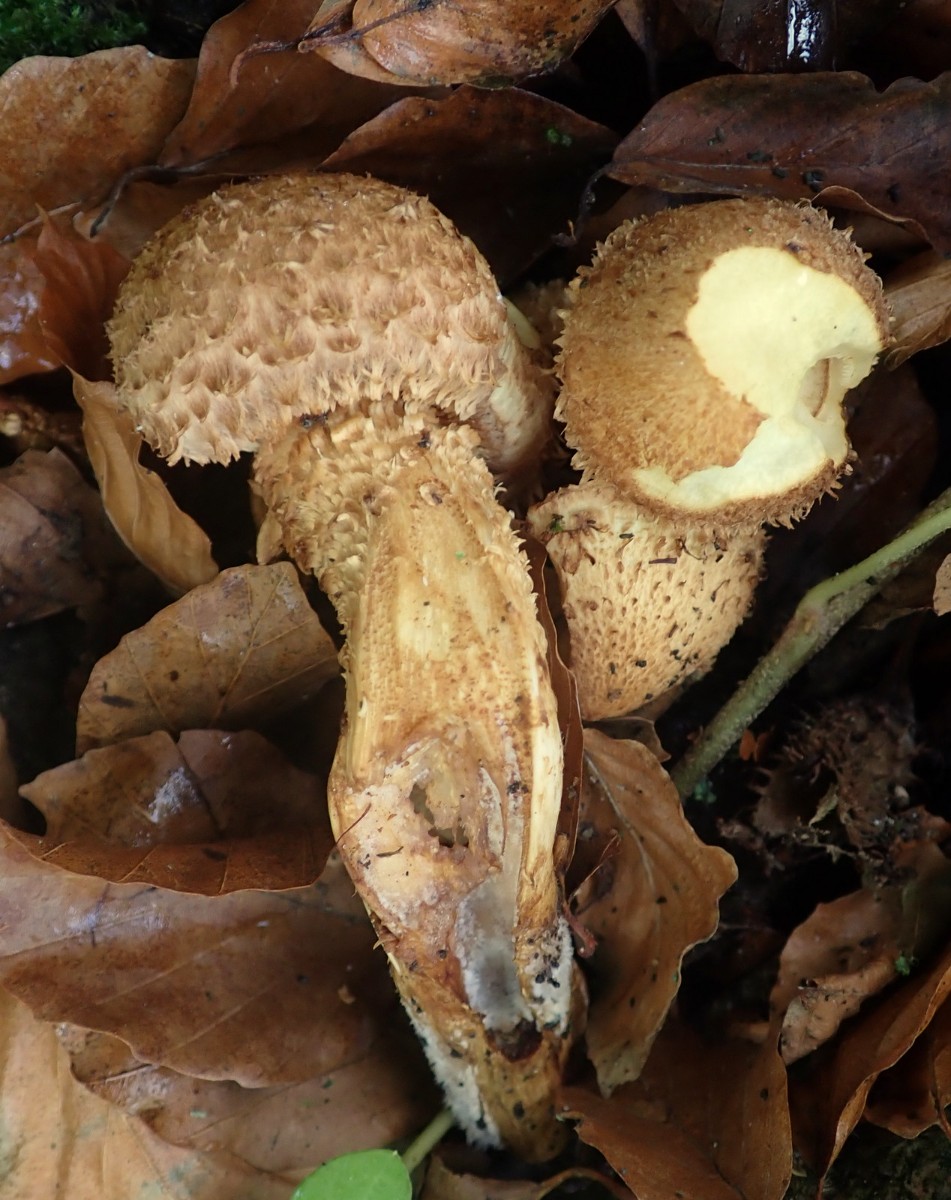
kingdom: Fungi
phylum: Basidiomycota
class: Agaricomycetes
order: Agaricales
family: Strophariaceae
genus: Pholiota
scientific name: Pholiota squarrosa
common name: krumskællet skælhat
